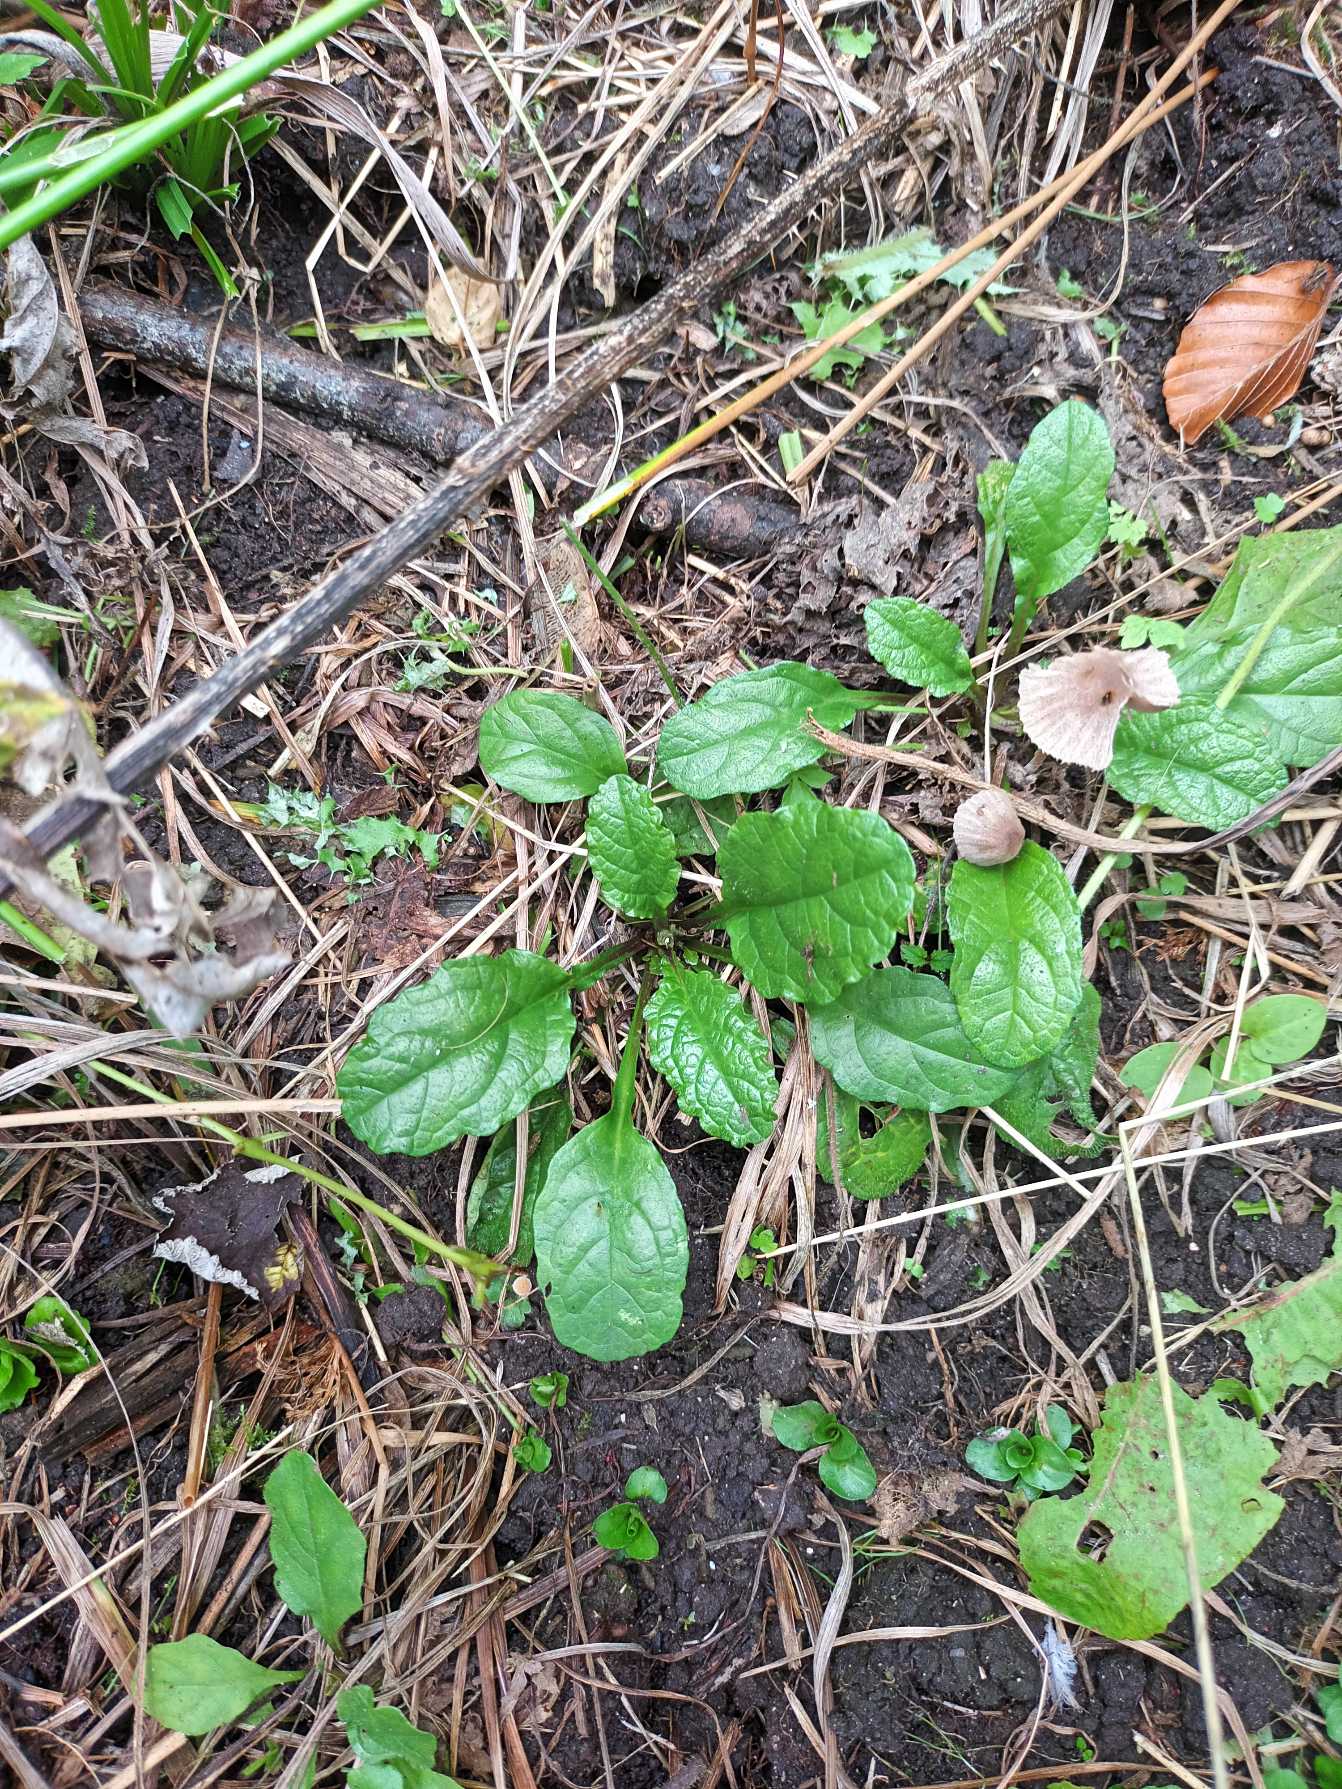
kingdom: Plantae
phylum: Tracheophyta
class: Magnoliopsida
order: Lamiales
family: Lamiaceae
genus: Ajuga
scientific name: Ajuga reptans
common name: Krybende læbeløs
